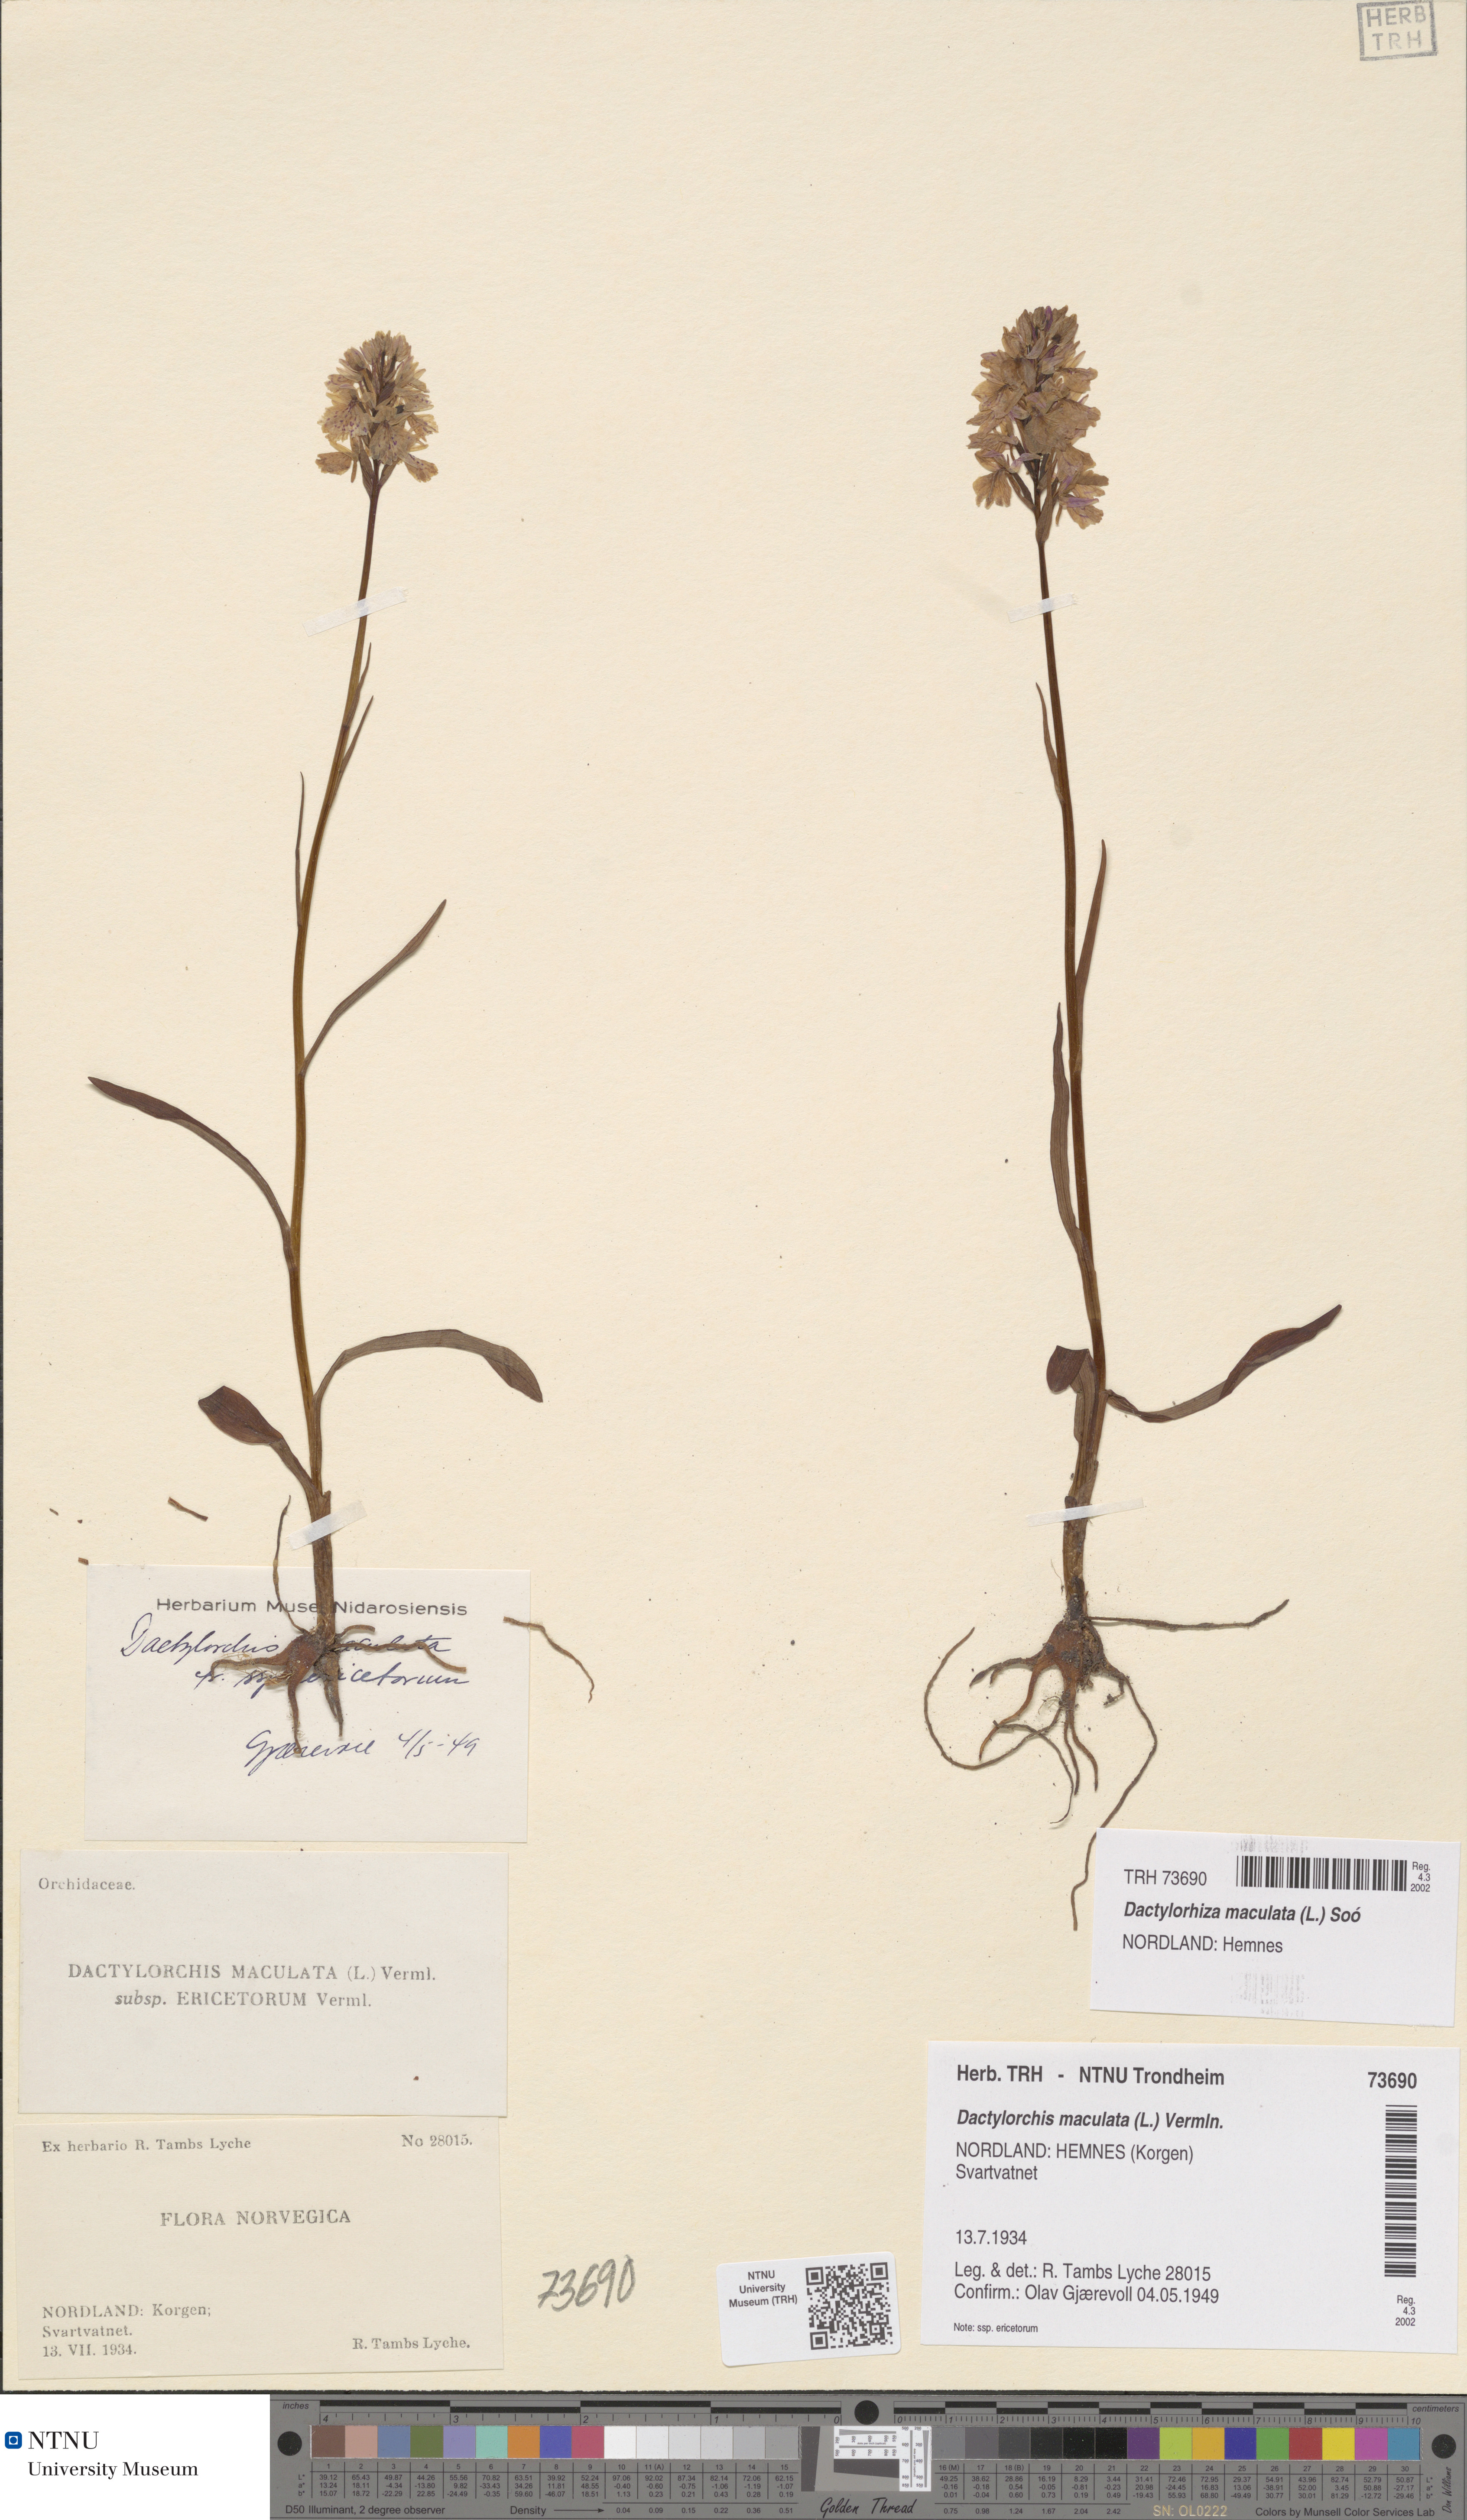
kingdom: Plantae
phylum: Tracheophyta
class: Liliopsida
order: Asparagales
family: Orchidaceae
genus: Dactylorhiza
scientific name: Dactylorhiza maculata
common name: Heath spotted-orchid
